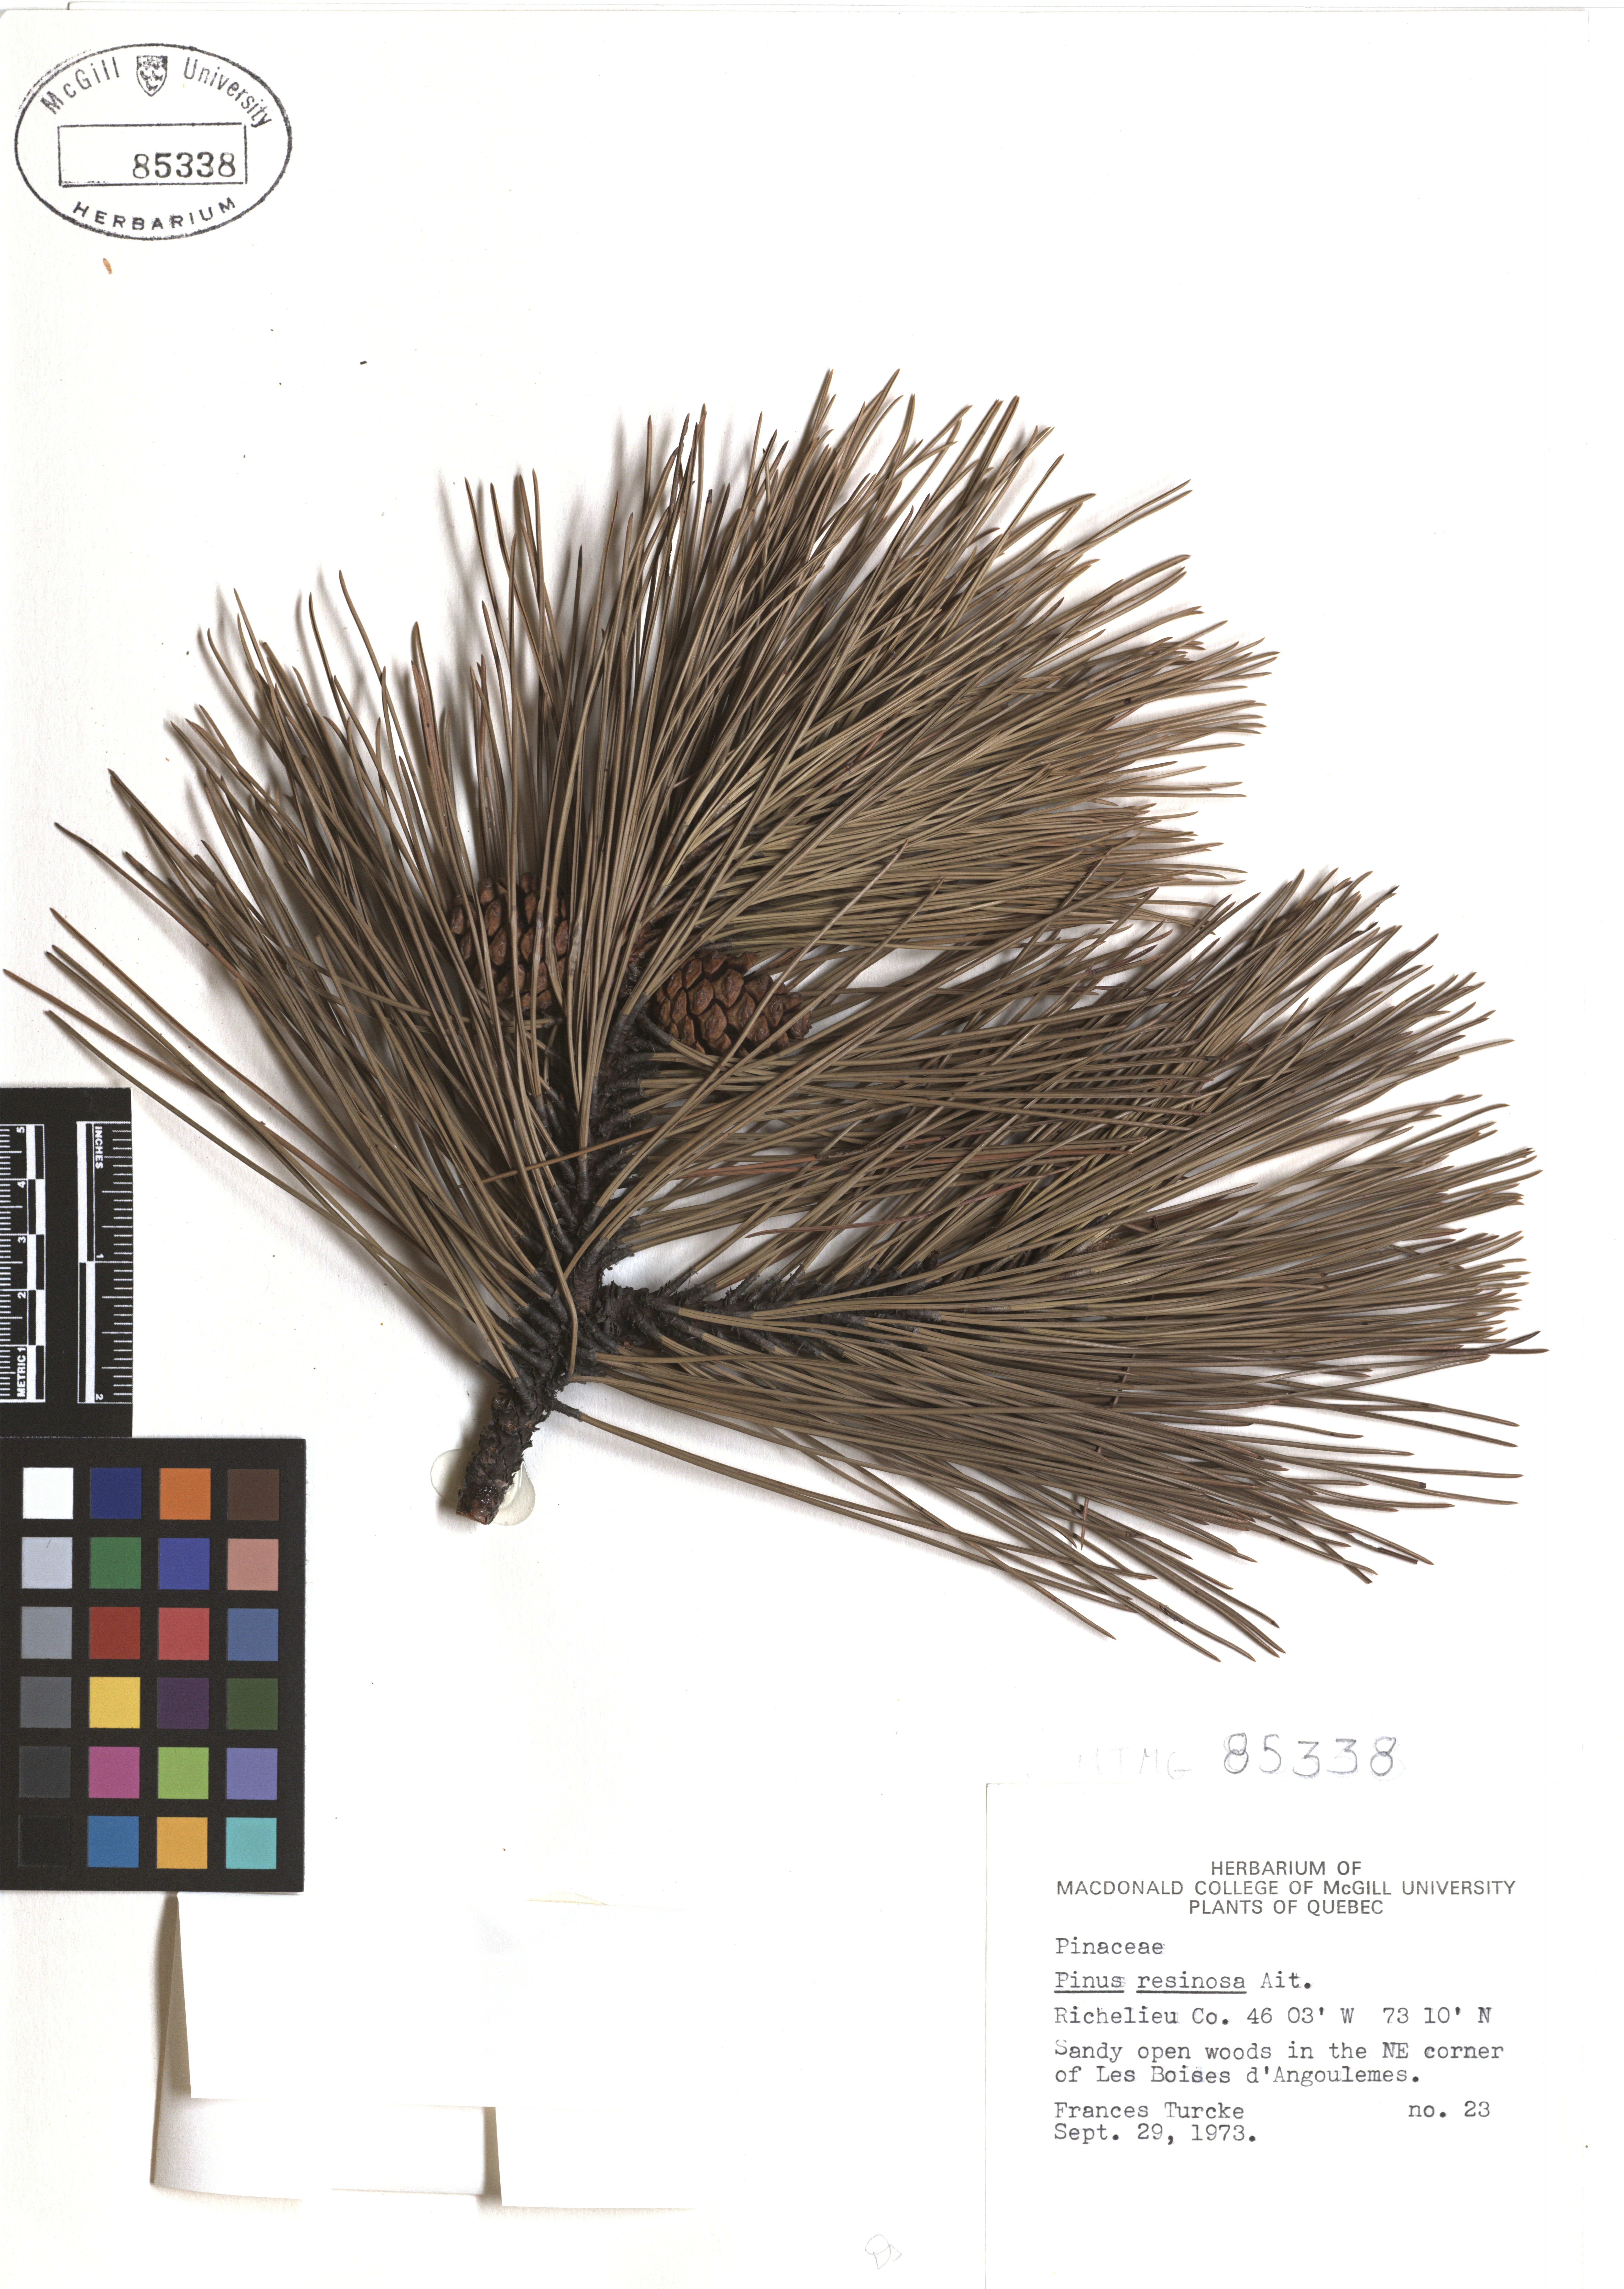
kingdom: Plantae
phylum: Tracheophyta
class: Pinopsida
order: Pinales
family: Pinaceae
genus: Pinus
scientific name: Pinus hartwegii
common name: Hartweg's pine
